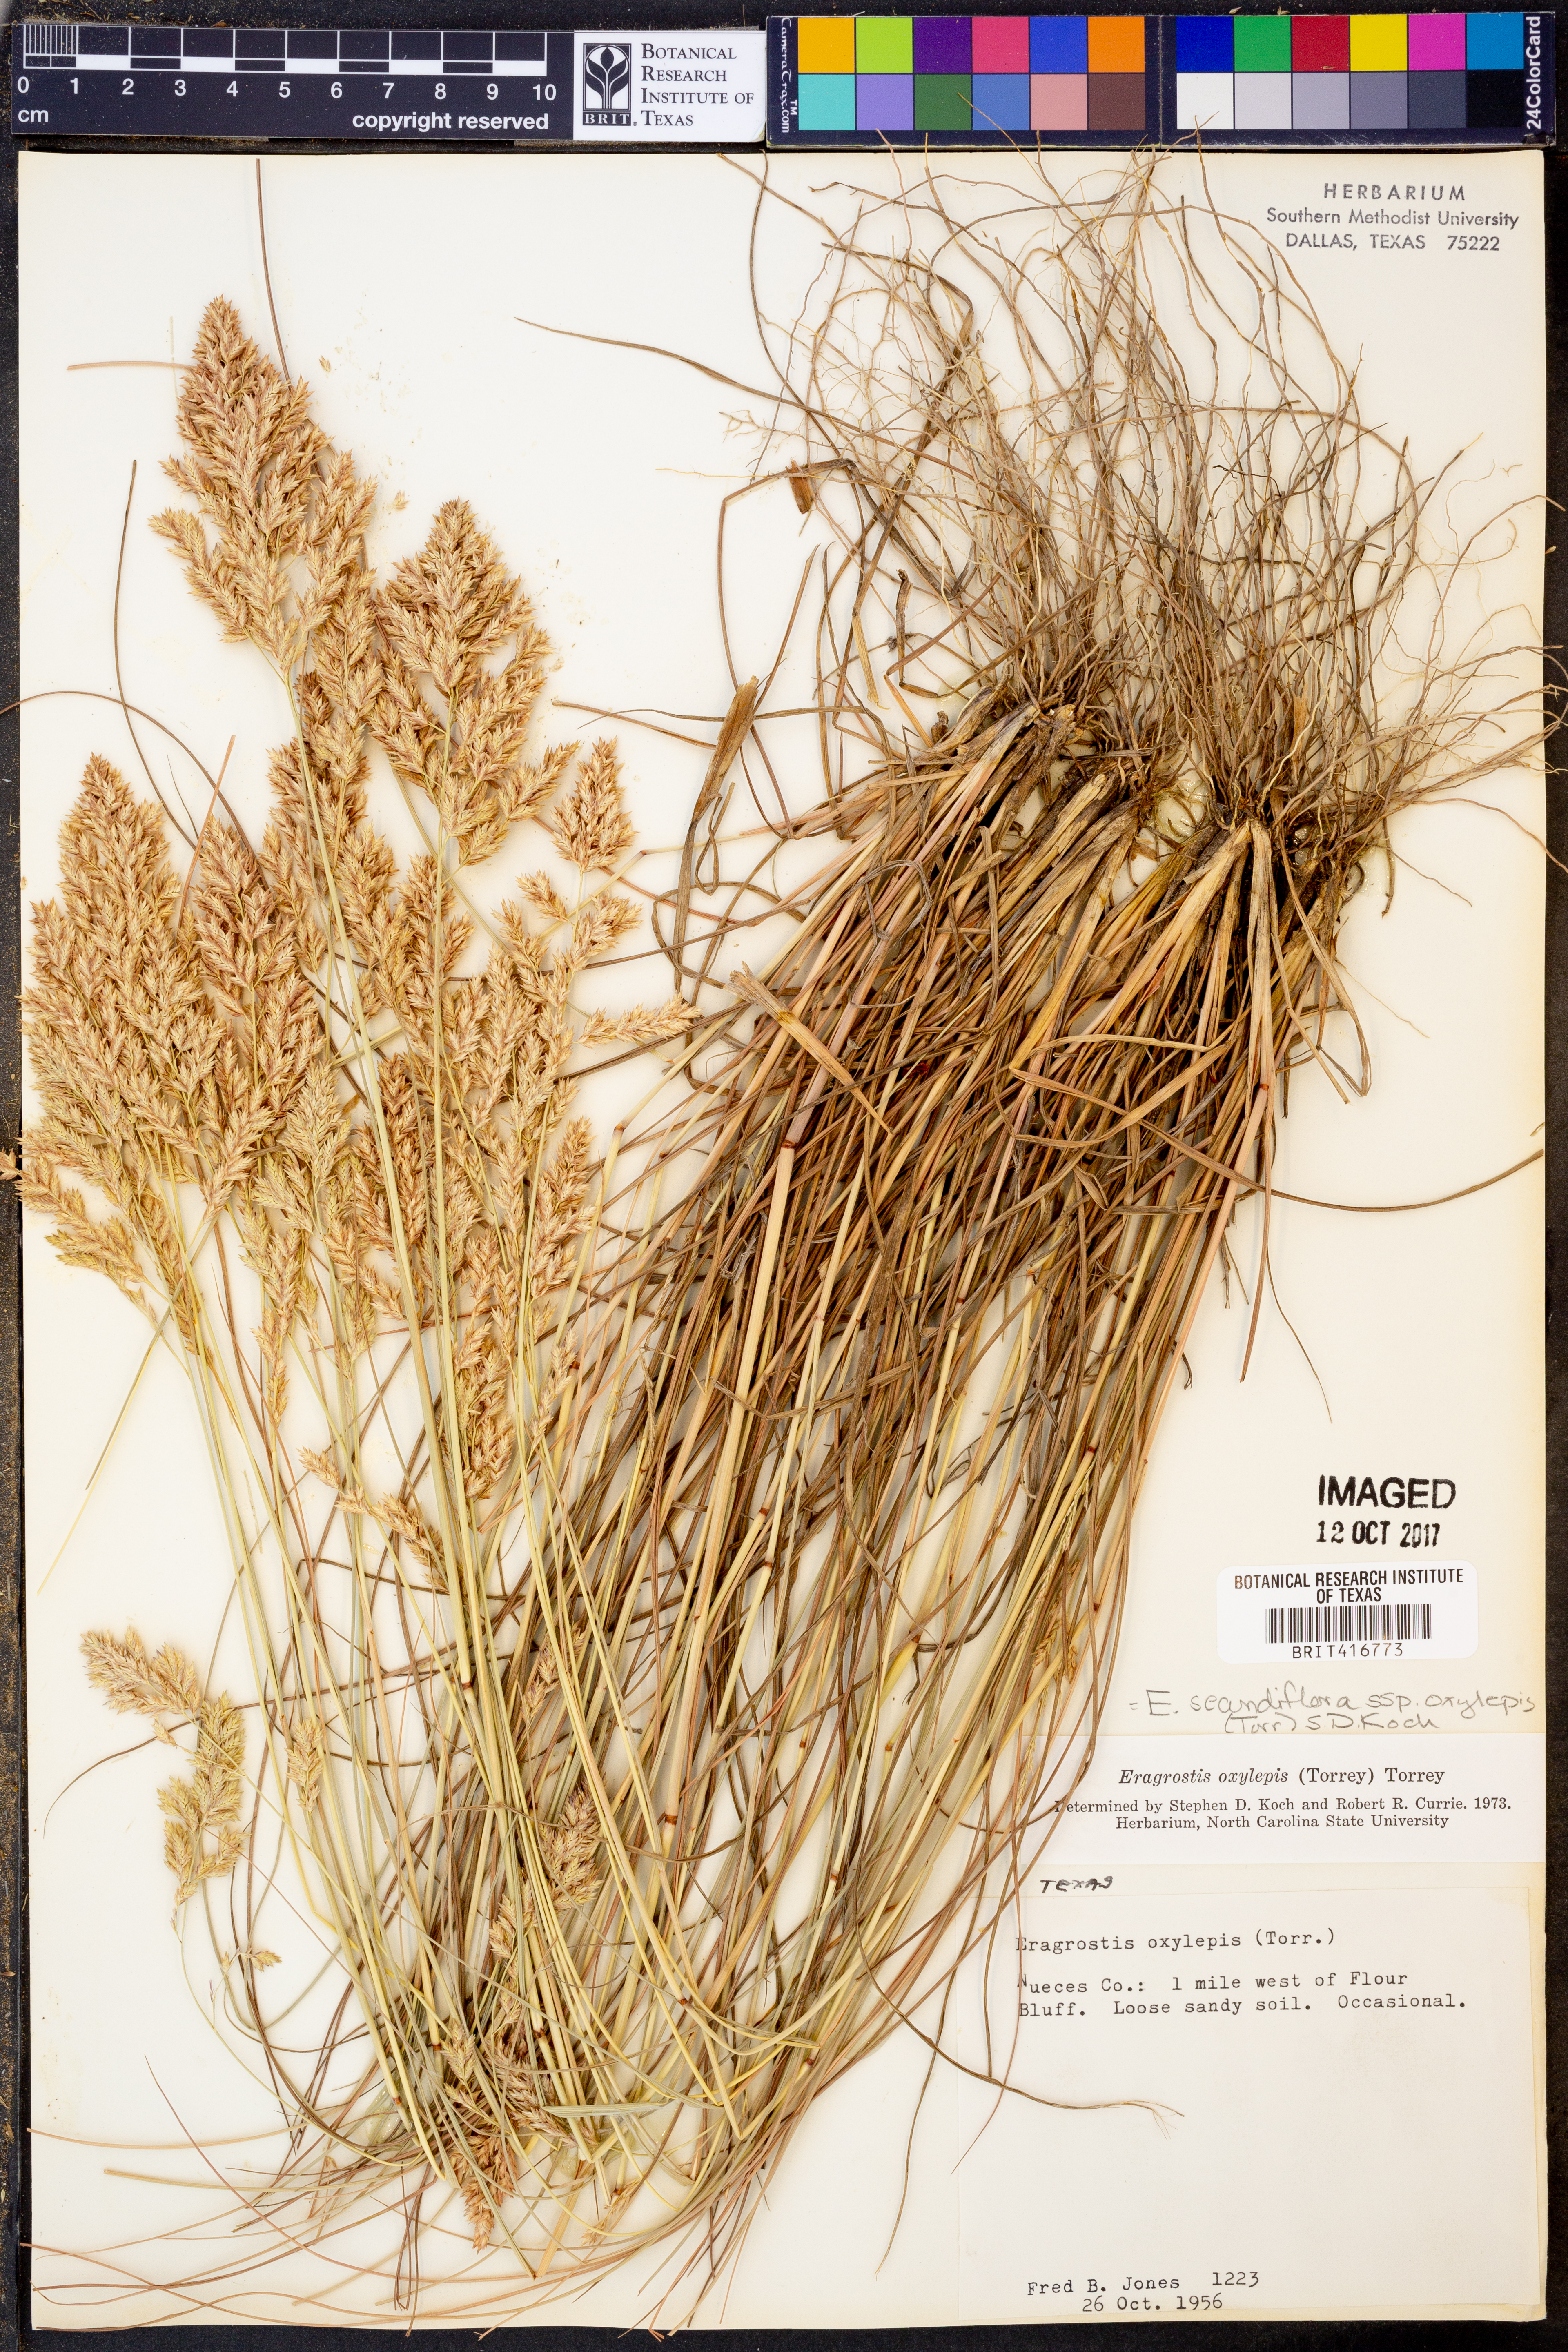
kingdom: Plantae
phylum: Tracheophyta
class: Liliopsida
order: Poales
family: Poaceae
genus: Eragrostis
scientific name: Eragrostis secundiflora
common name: Red love grass
